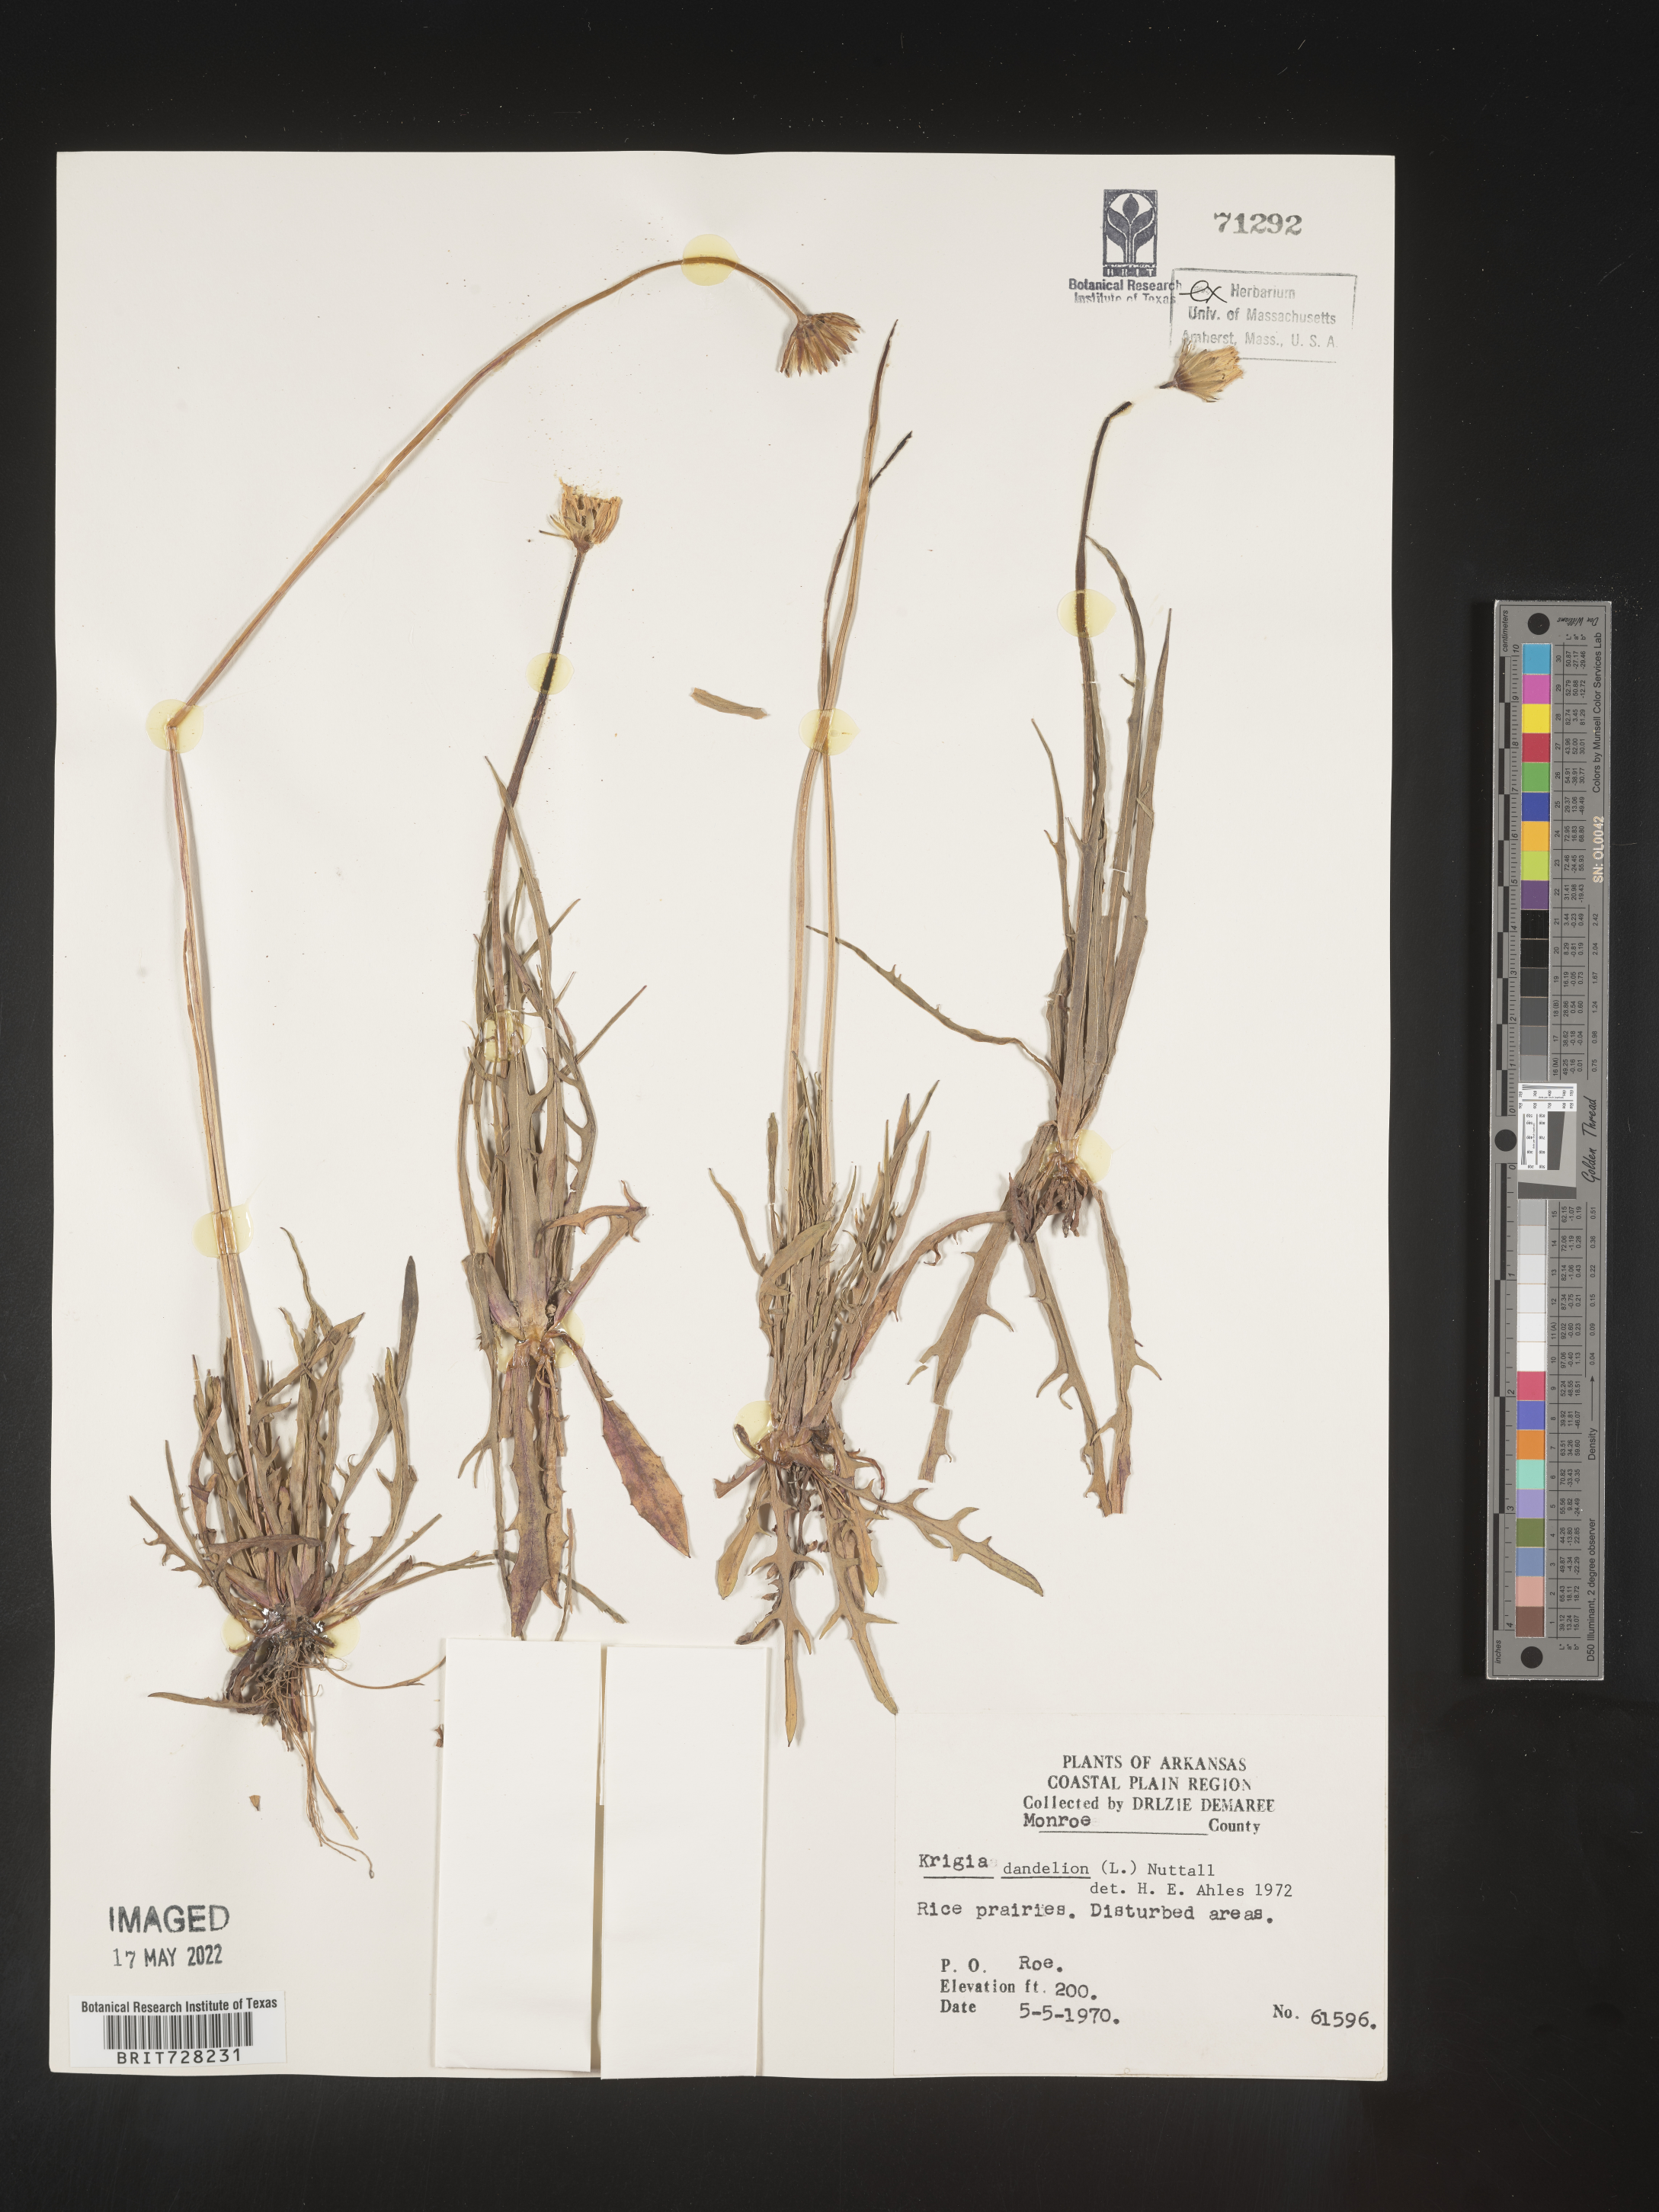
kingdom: Plantae
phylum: Tracheophyta
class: Magnoliopsida
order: Asterales
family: Asteraceae
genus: Krigia
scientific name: Krigia dandelion
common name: Colonial dwarf-dandelion
